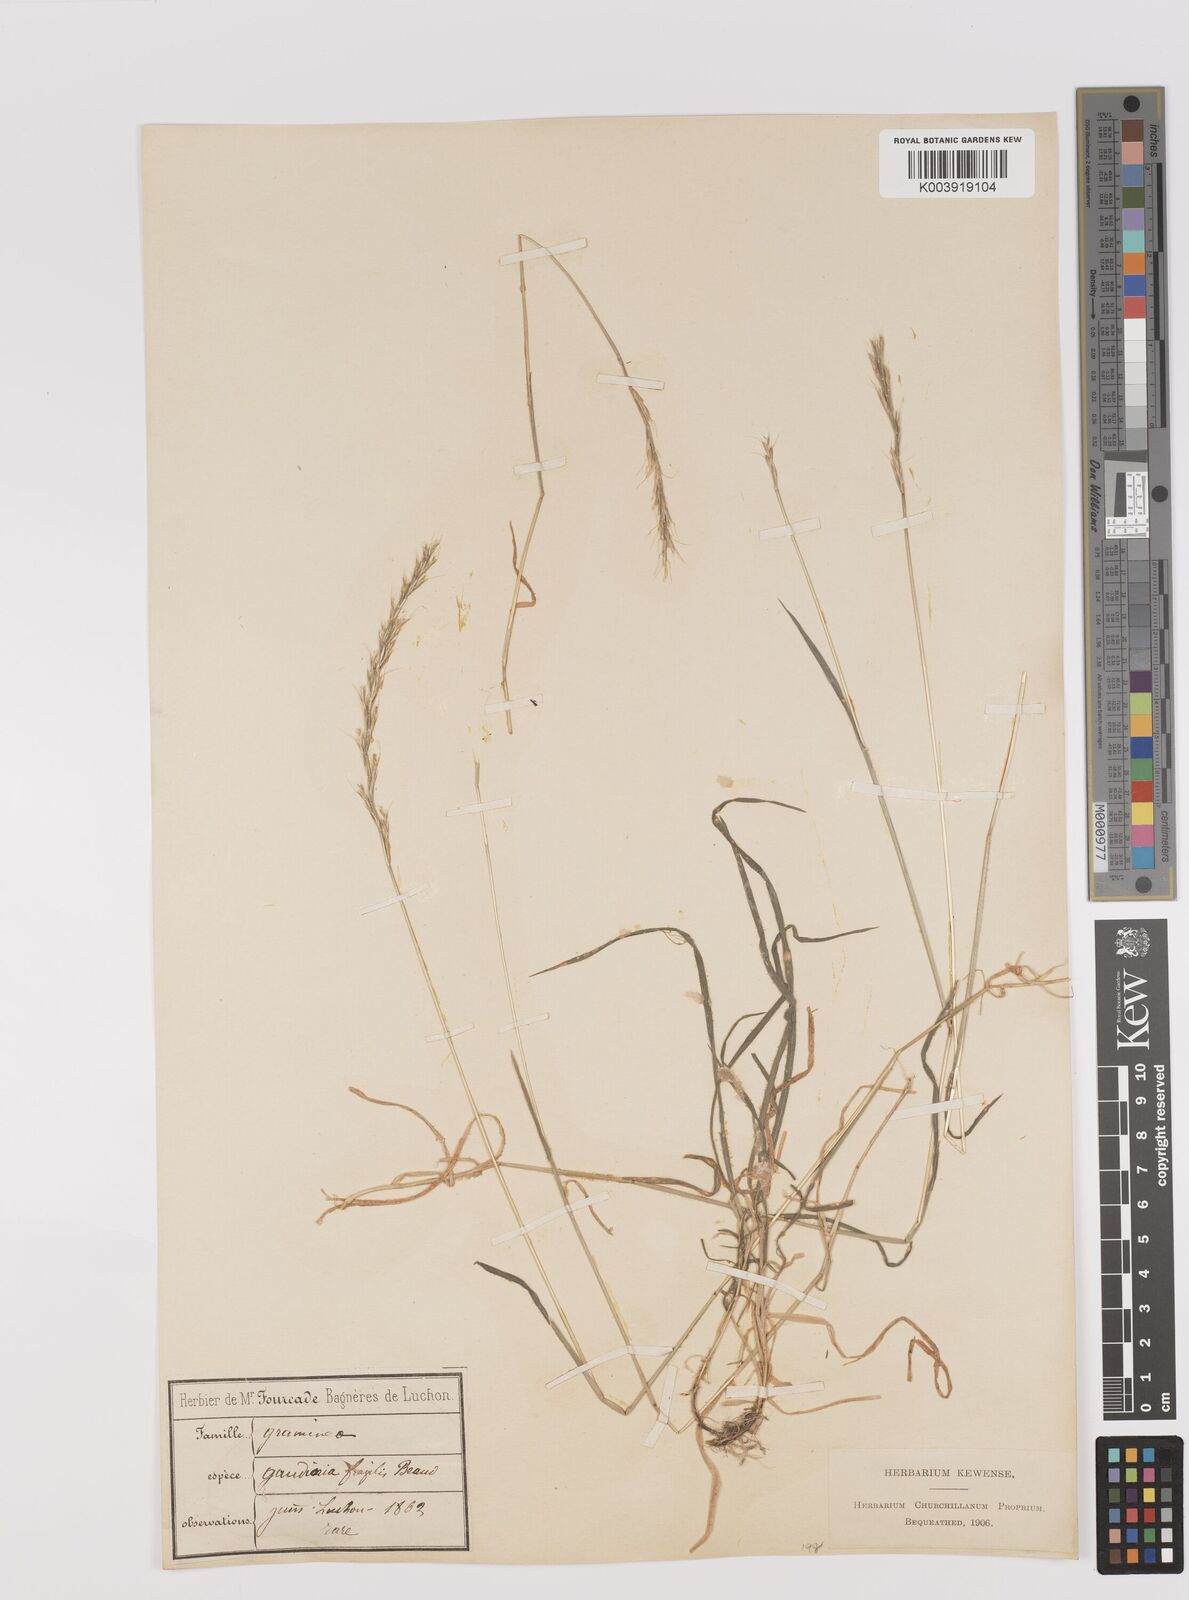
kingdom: Plantae
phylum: Tracheophyta
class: Liliopsida
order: Poales
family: Poaceae
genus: Gaudinia
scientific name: Gaudinia fragilis
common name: French oat-grass
